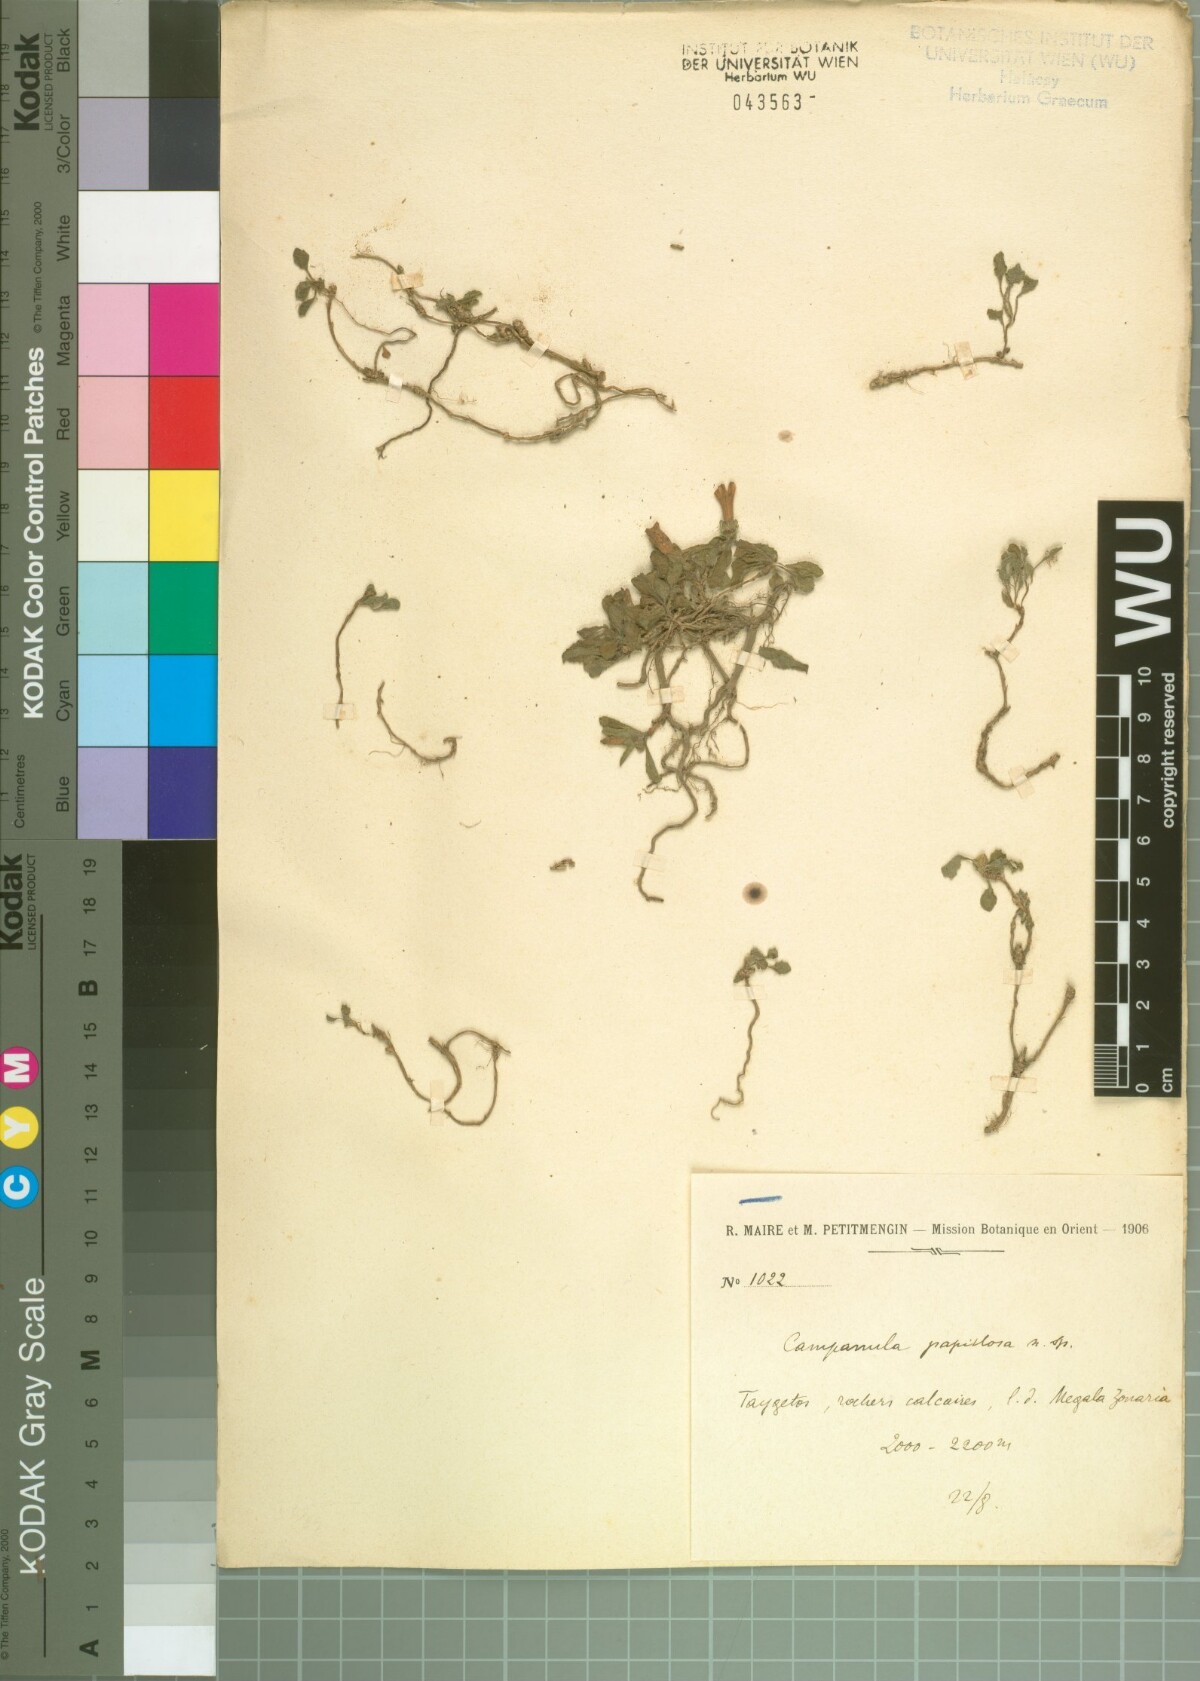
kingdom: Plantae
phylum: Tracheophyta
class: Magnoliopsida
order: Asterales
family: Campanulaceae
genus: Campanula
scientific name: Campanula papillosa
